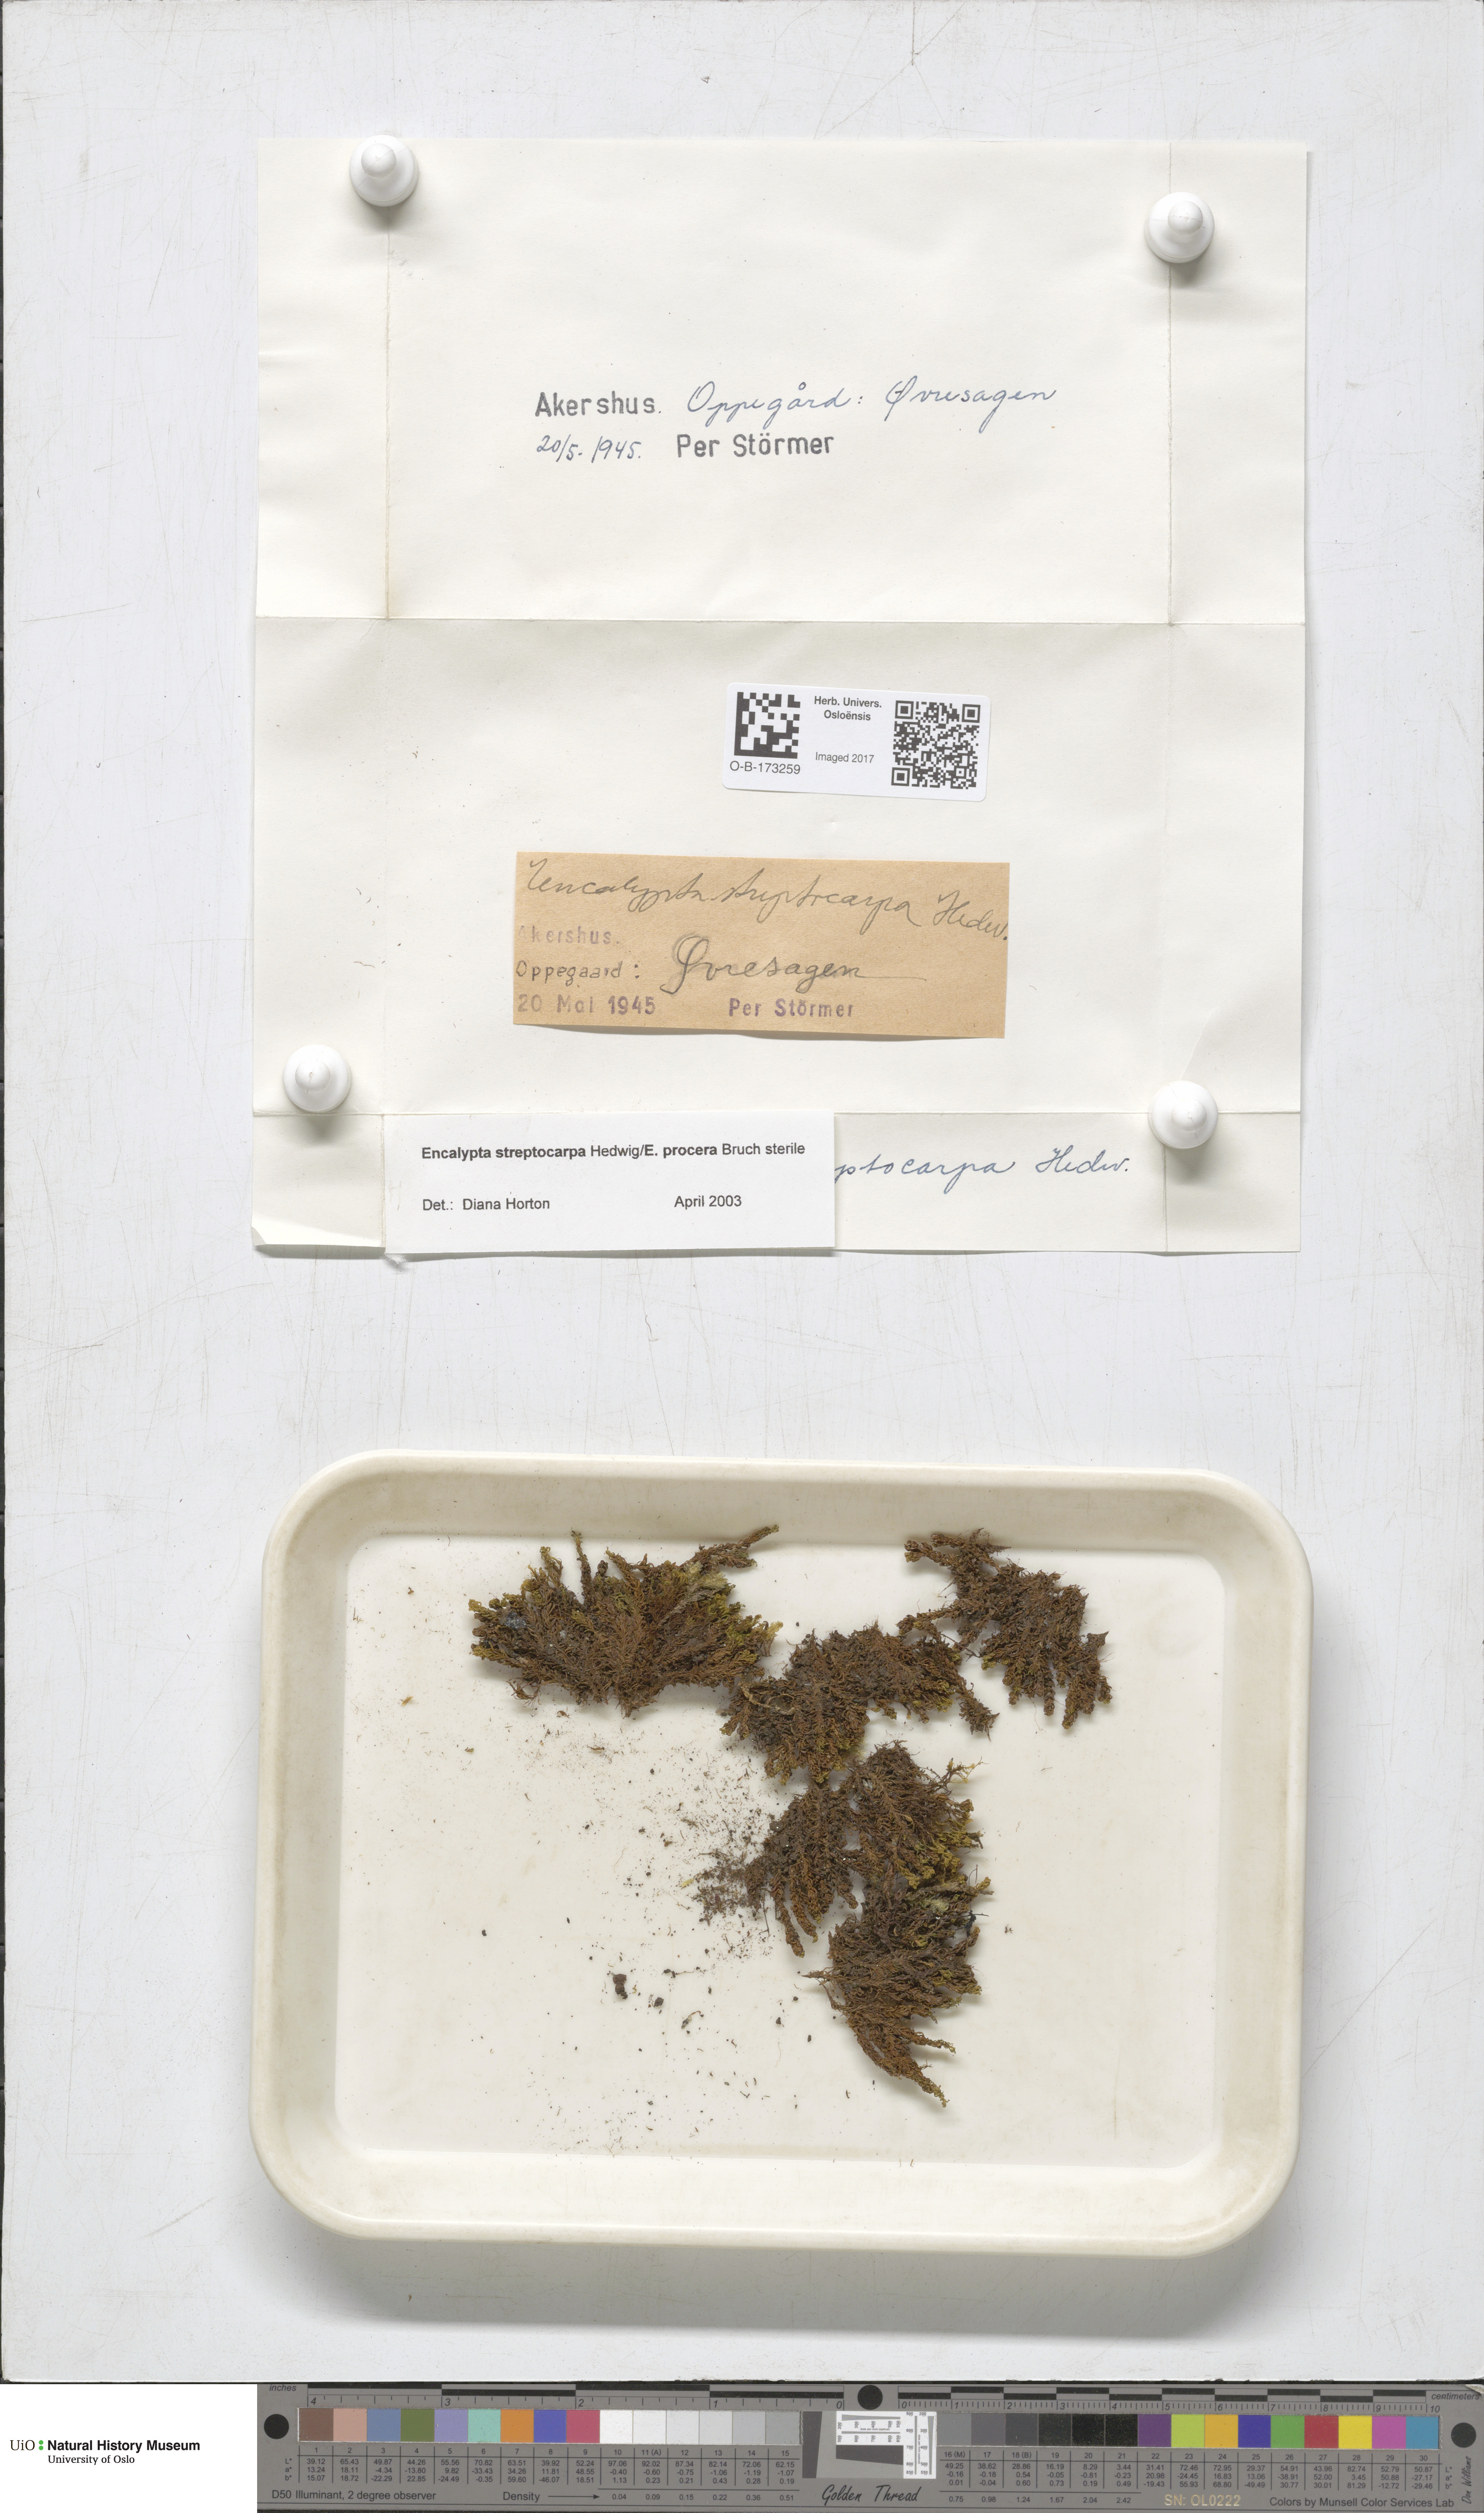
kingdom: Plantae
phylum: Bryophyta
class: Bryopsida
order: Encalyptales
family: Encalyptaceae
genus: Encalypta
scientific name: Encalypta
